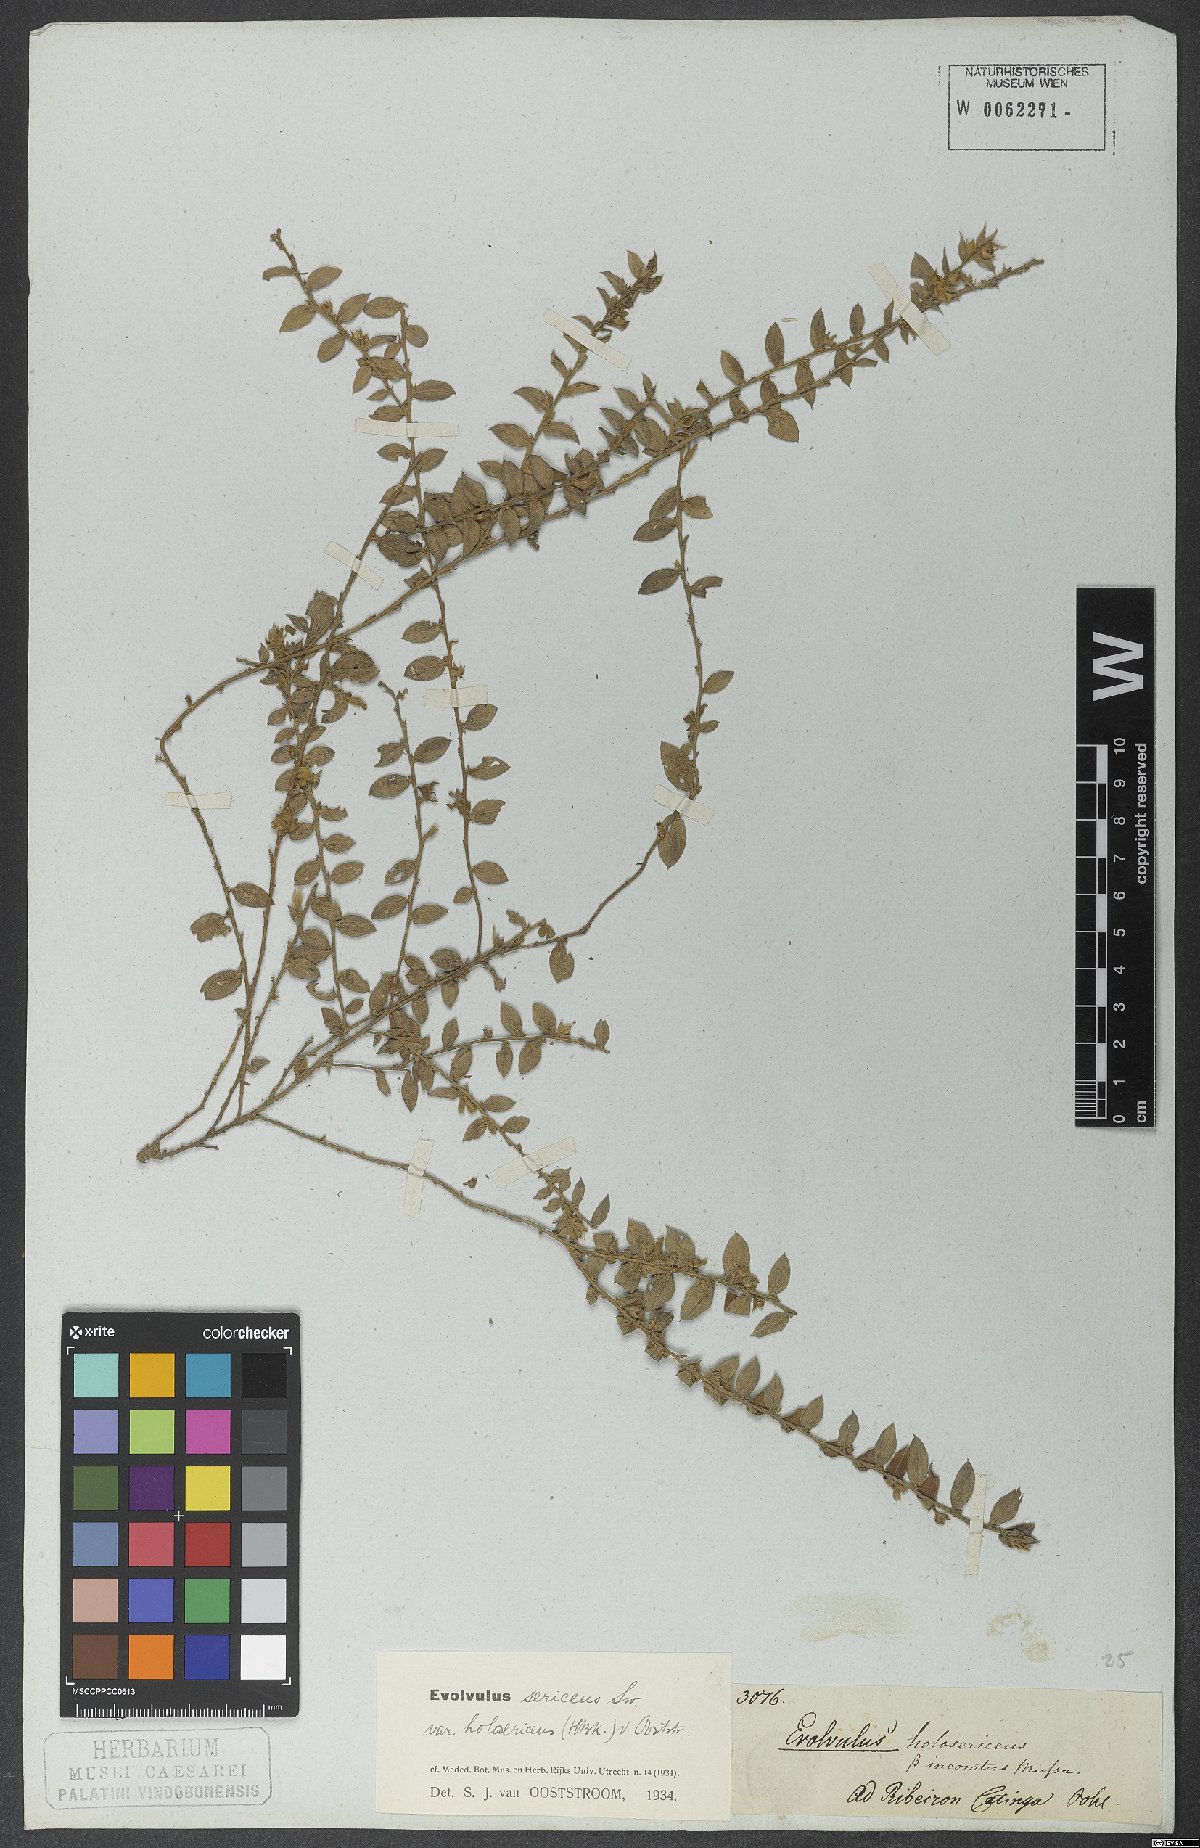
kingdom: Plantae
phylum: Tracheophyta
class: Magnoliopsida
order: Solanales
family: Convolvulaceae
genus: Evolvulus
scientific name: Evolvulus sericeus
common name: Blue dots
